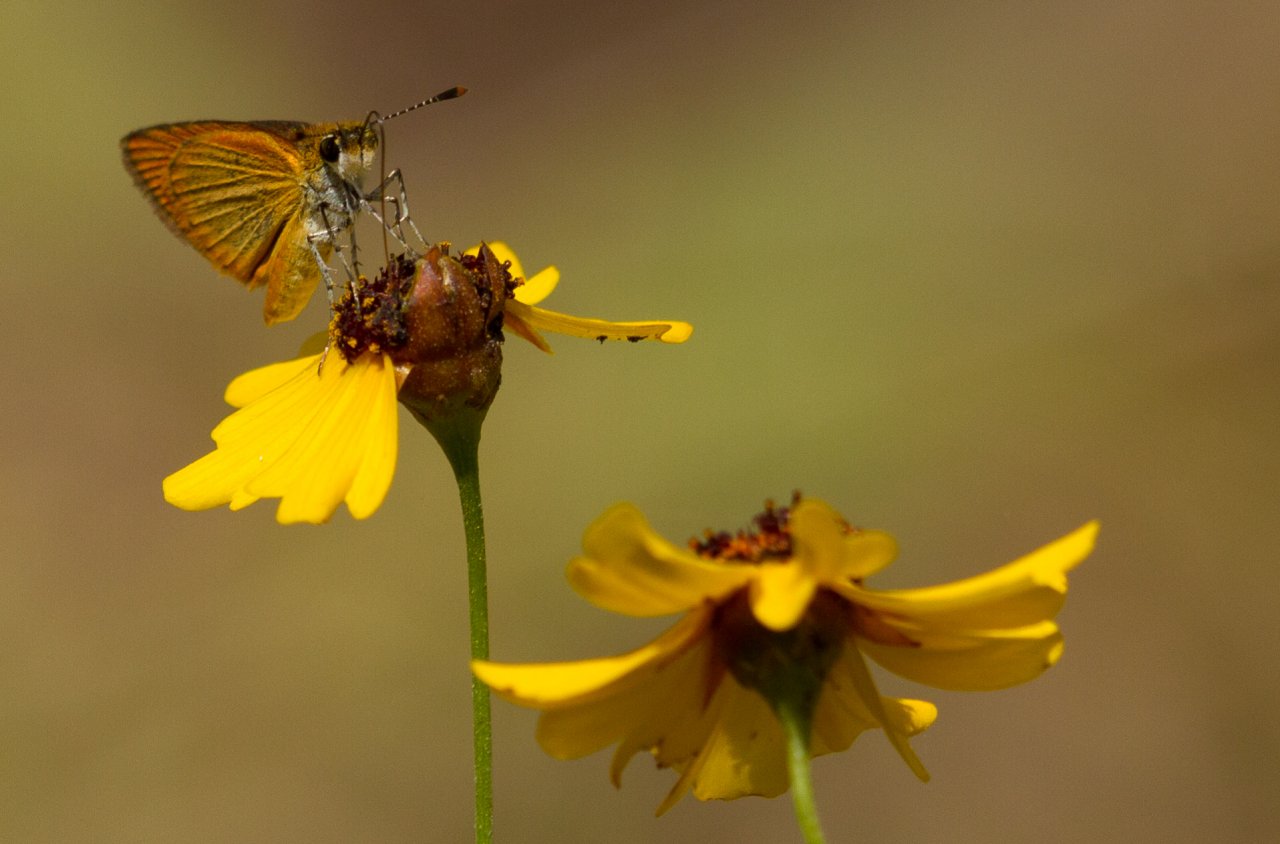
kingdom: Animalia
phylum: Arthropoda
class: Insecta
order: Lepidoptera
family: Hesperiidae
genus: Ancyloxypha
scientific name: Ancyloxypha numitor
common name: Least Skipper
